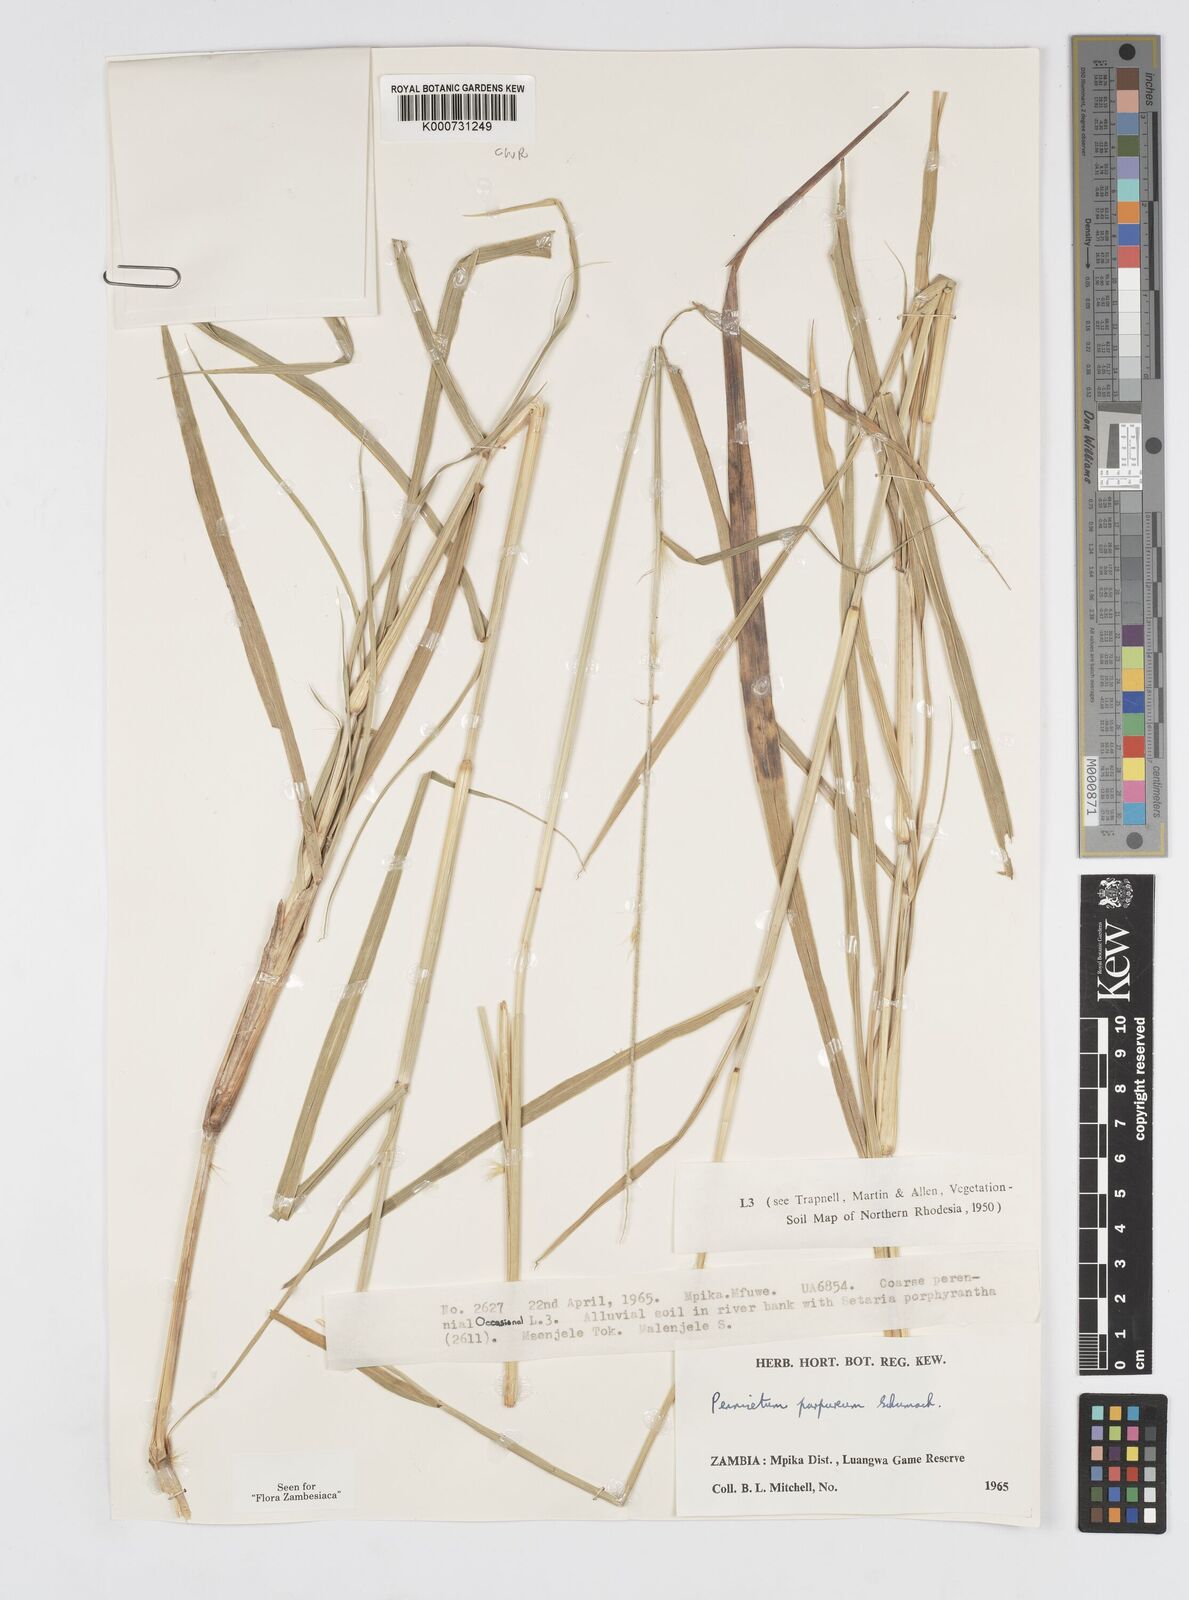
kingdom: Plantae
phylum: Tracheophyta
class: Liliopsida
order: Poales
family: Poaceae
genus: Cenchrus
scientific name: Cenchrus purpureus
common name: Elephant grass
